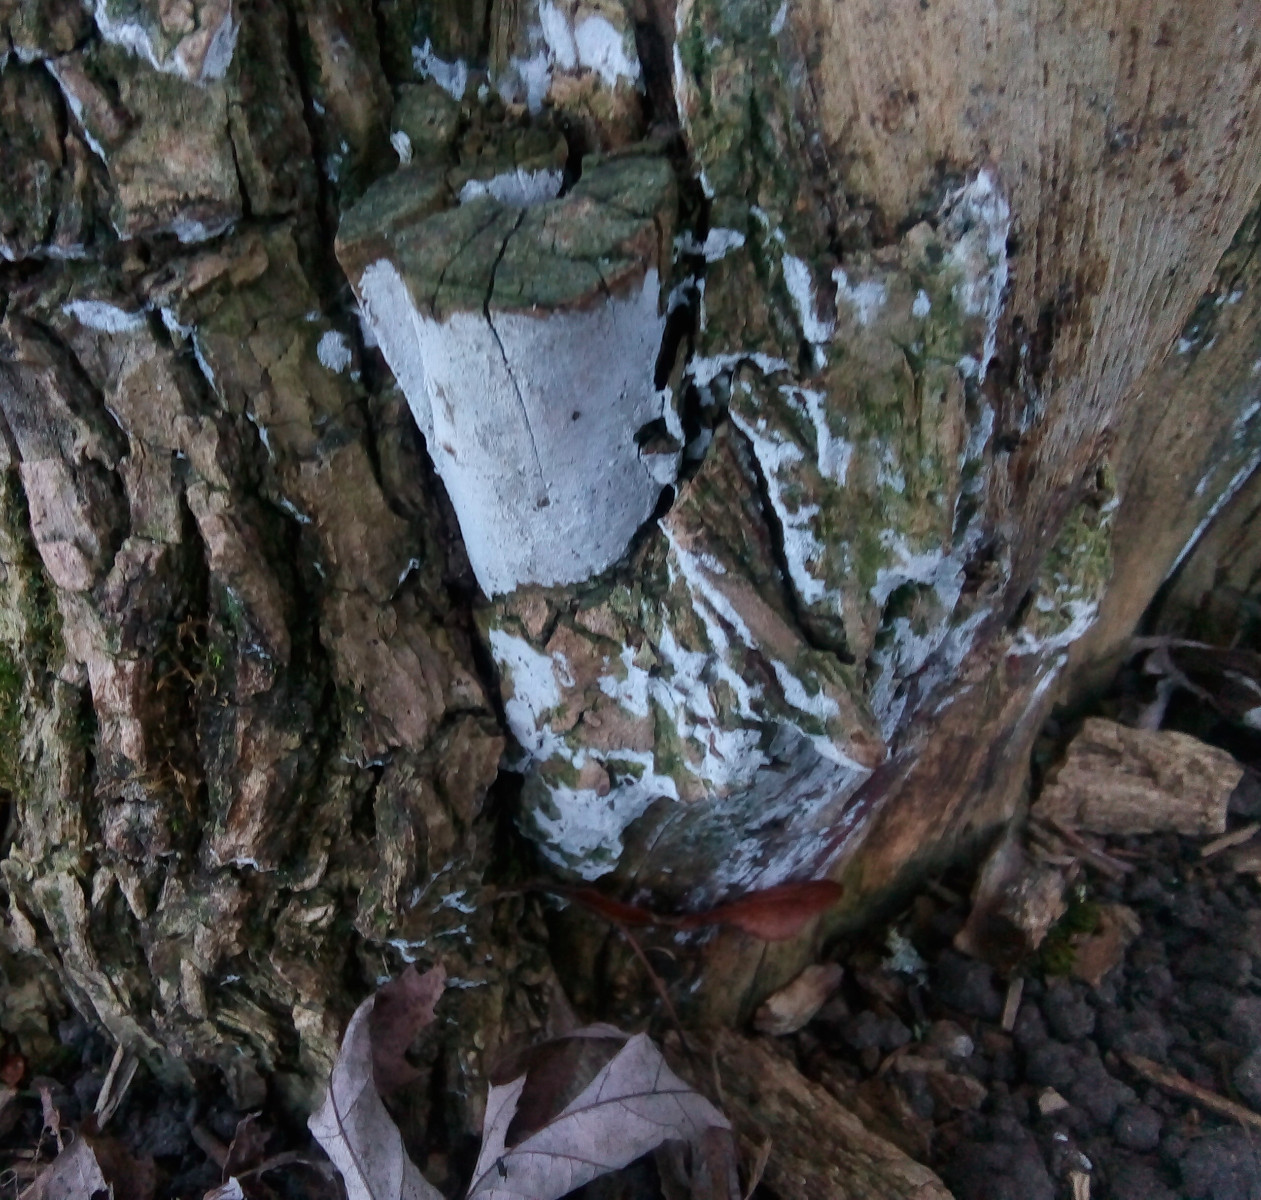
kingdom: Fungi
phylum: Basidiomycota
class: Agaricomycetes
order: Corticiales
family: Corticiaceae
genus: Lyomyces
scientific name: Lyomyces sambuci
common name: almindelig hyldehinde
